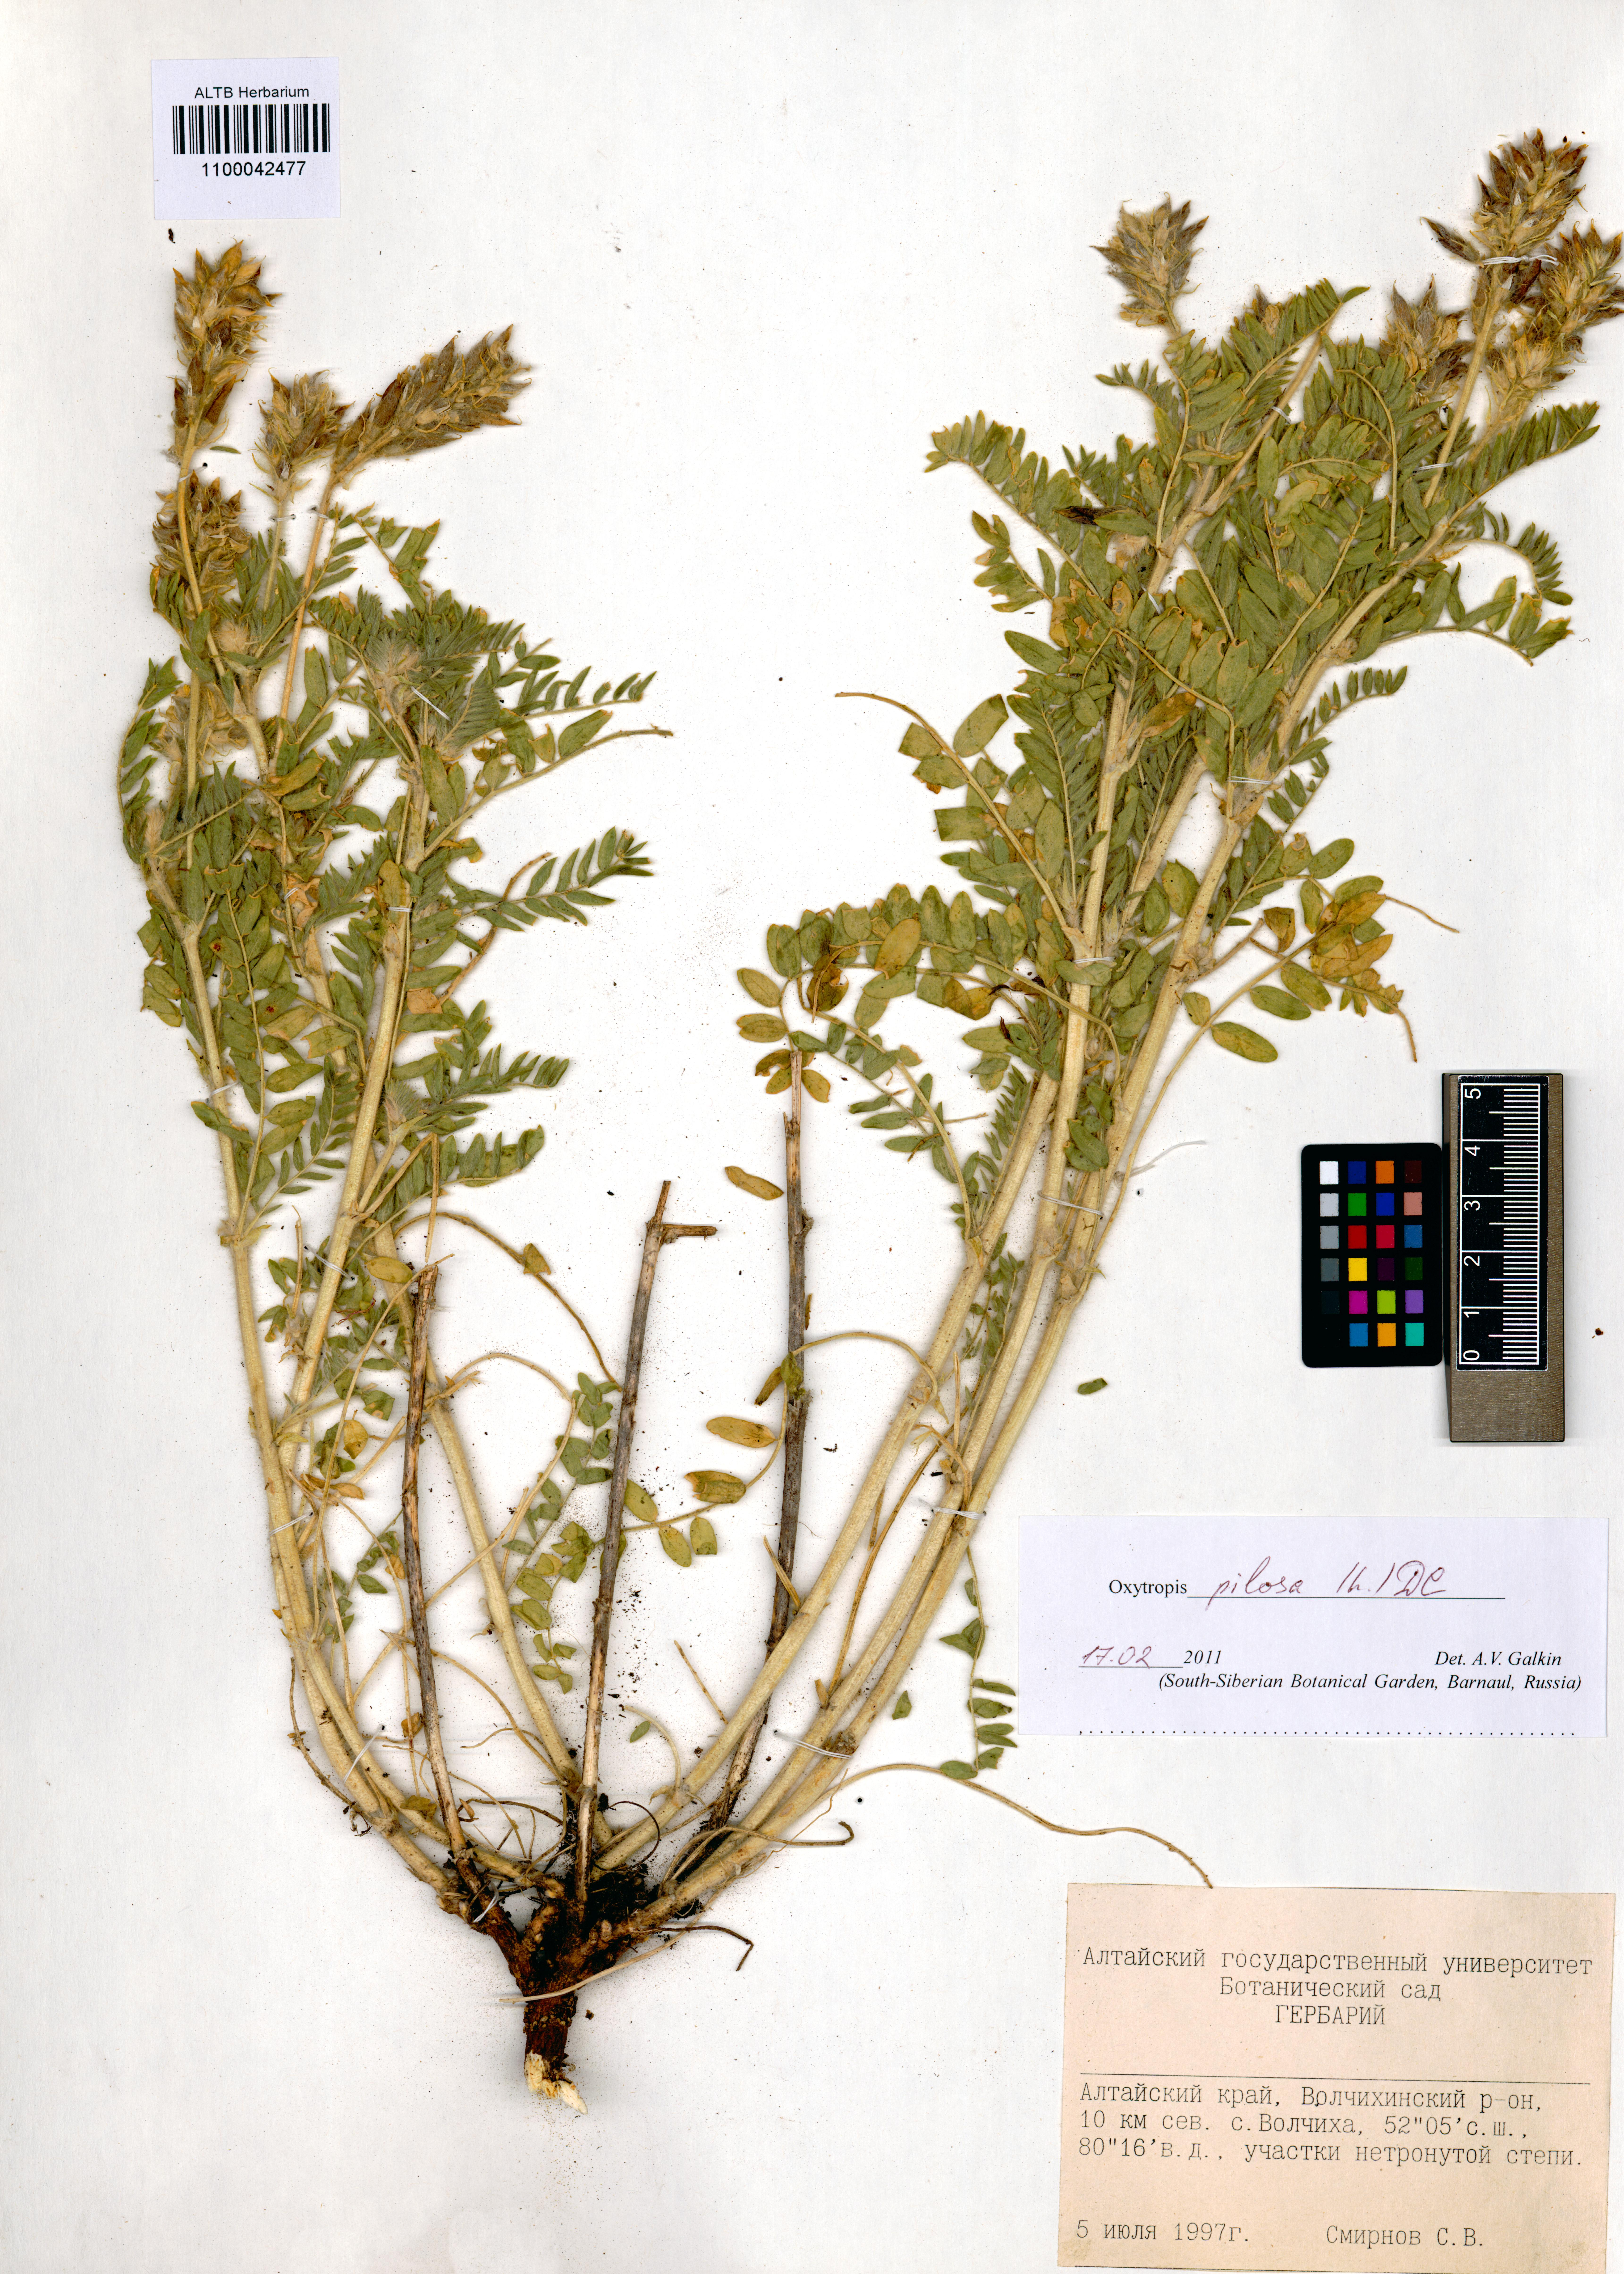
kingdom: Plantae
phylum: Tracheophyta
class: Magnoliopsida
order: Fabales
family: Fabaceae
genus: Oxytropis
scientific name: Oxytropis pilosa
